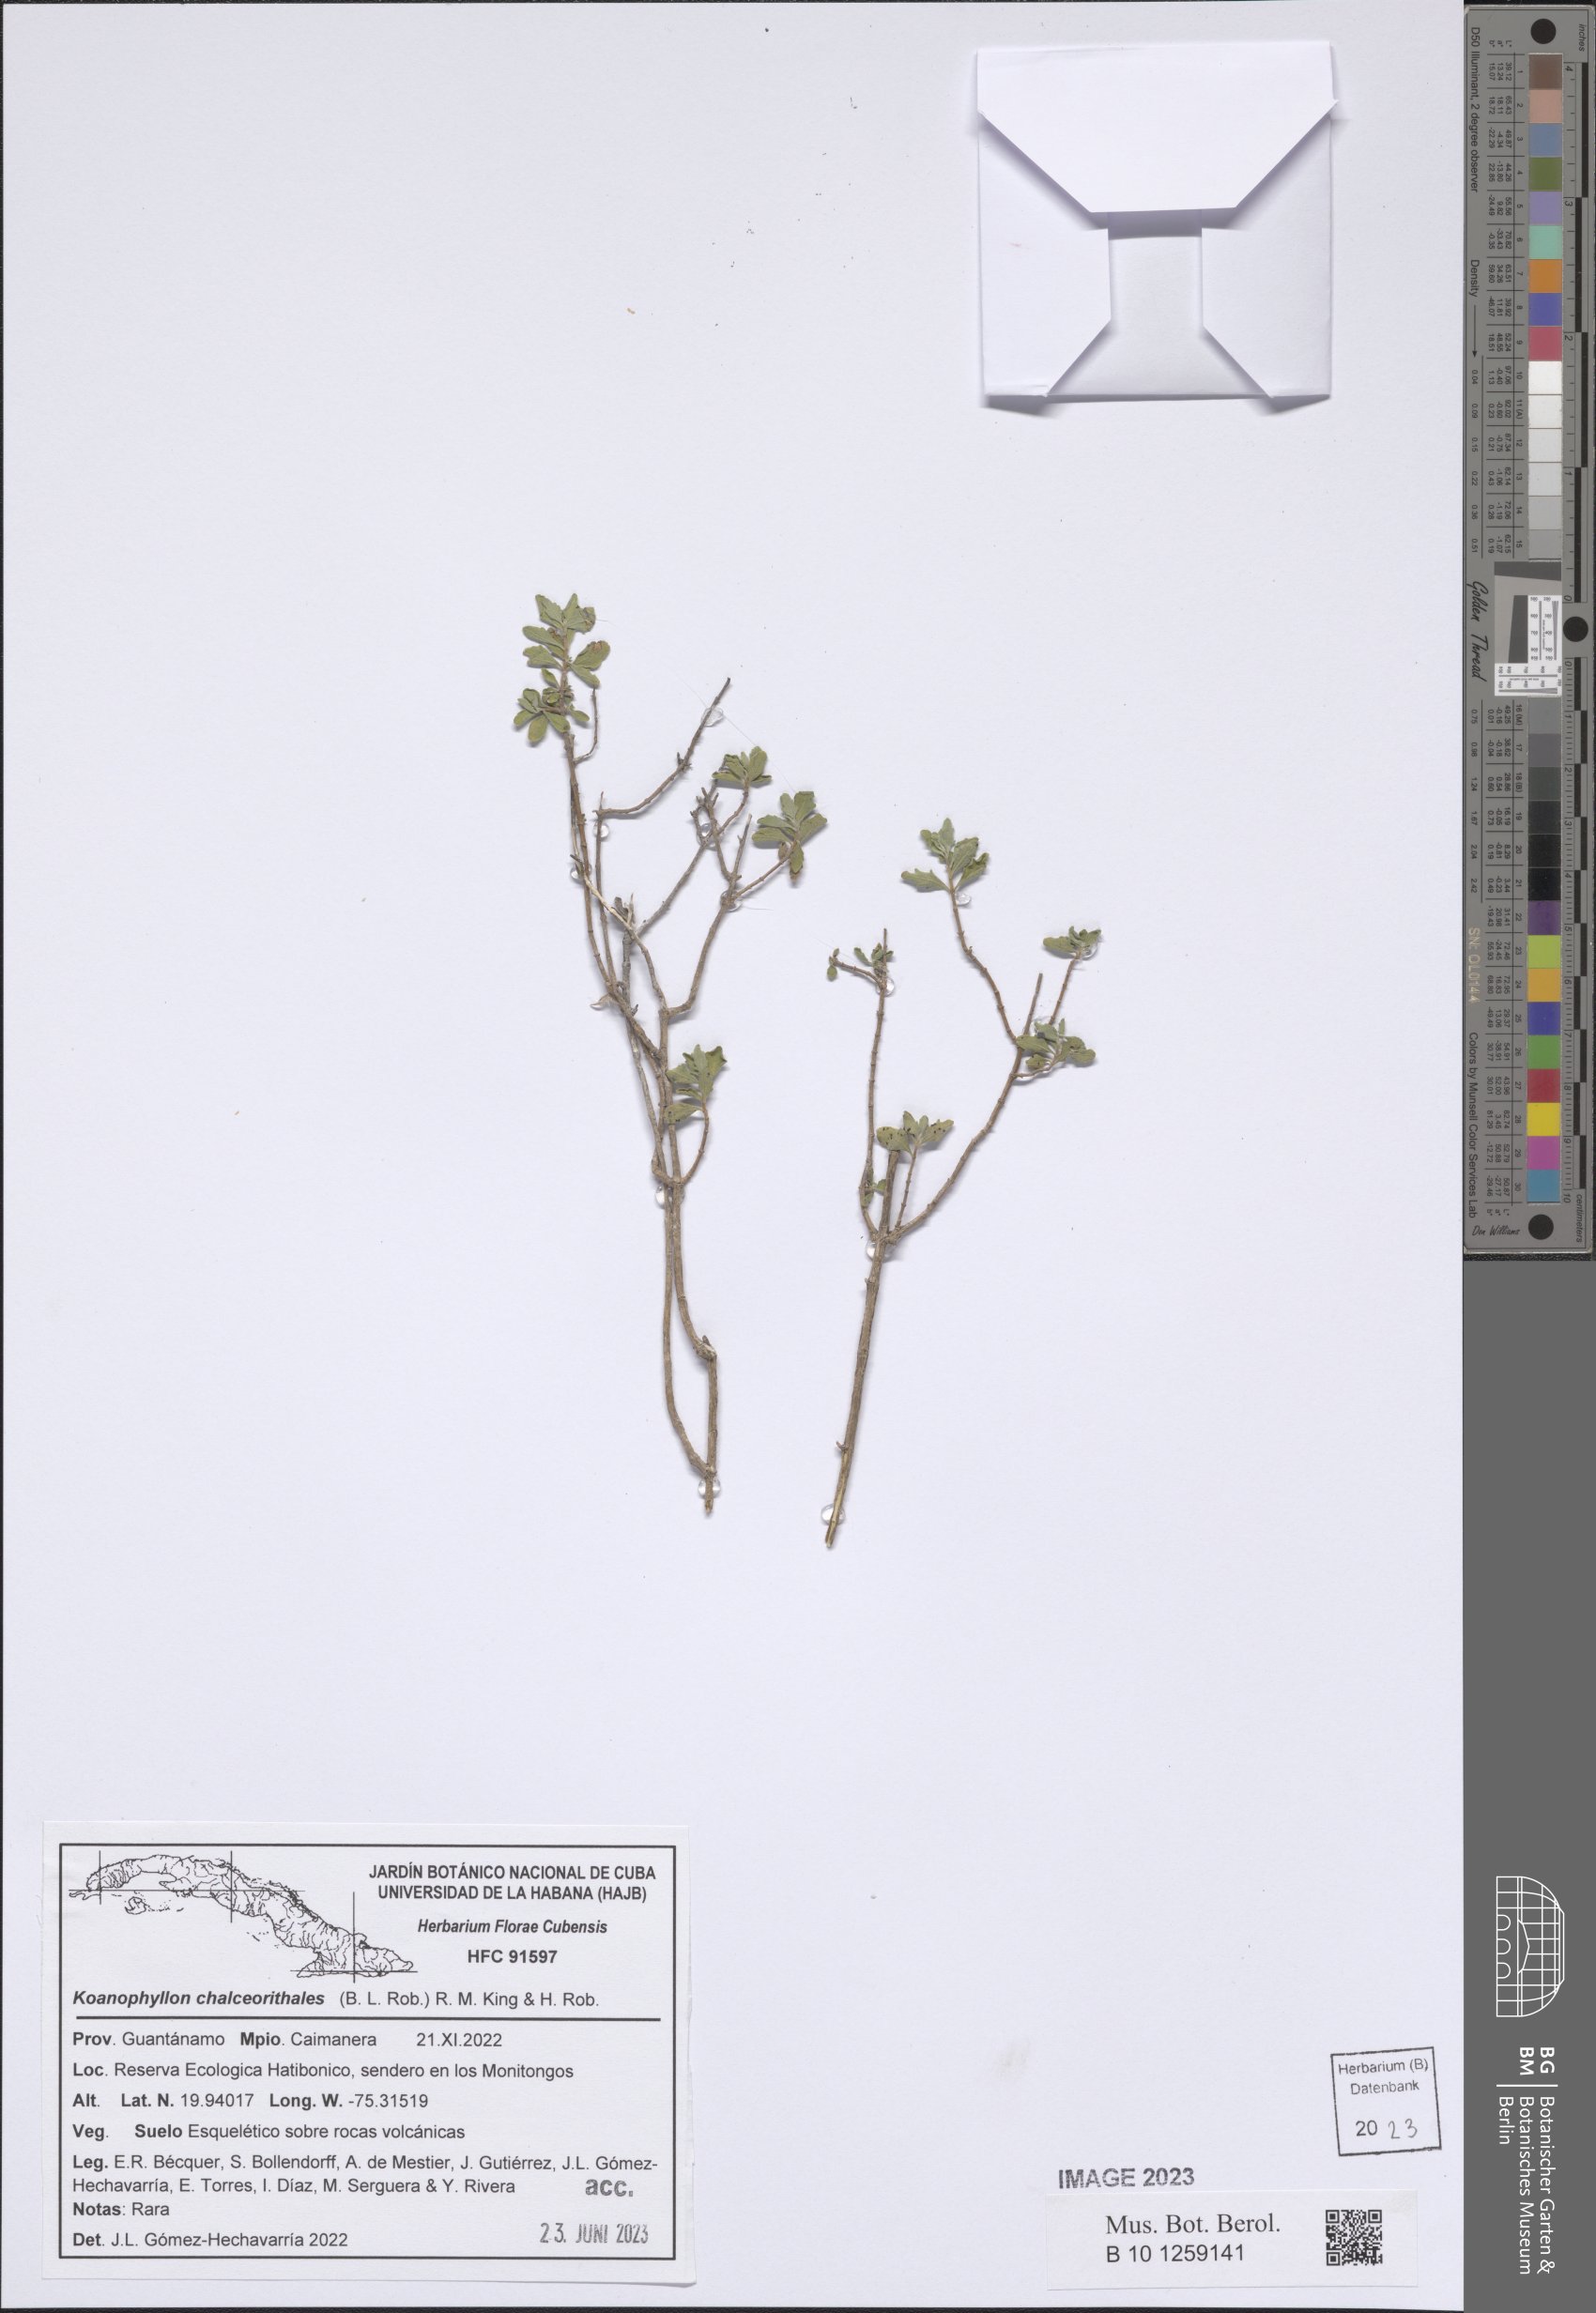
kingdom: Plantae
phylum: Tracheophyta
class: Magnoliopsida
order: Asterales
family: Asteraceae
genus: Koanophyllon
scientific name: Koanophyllon chalceorithales
